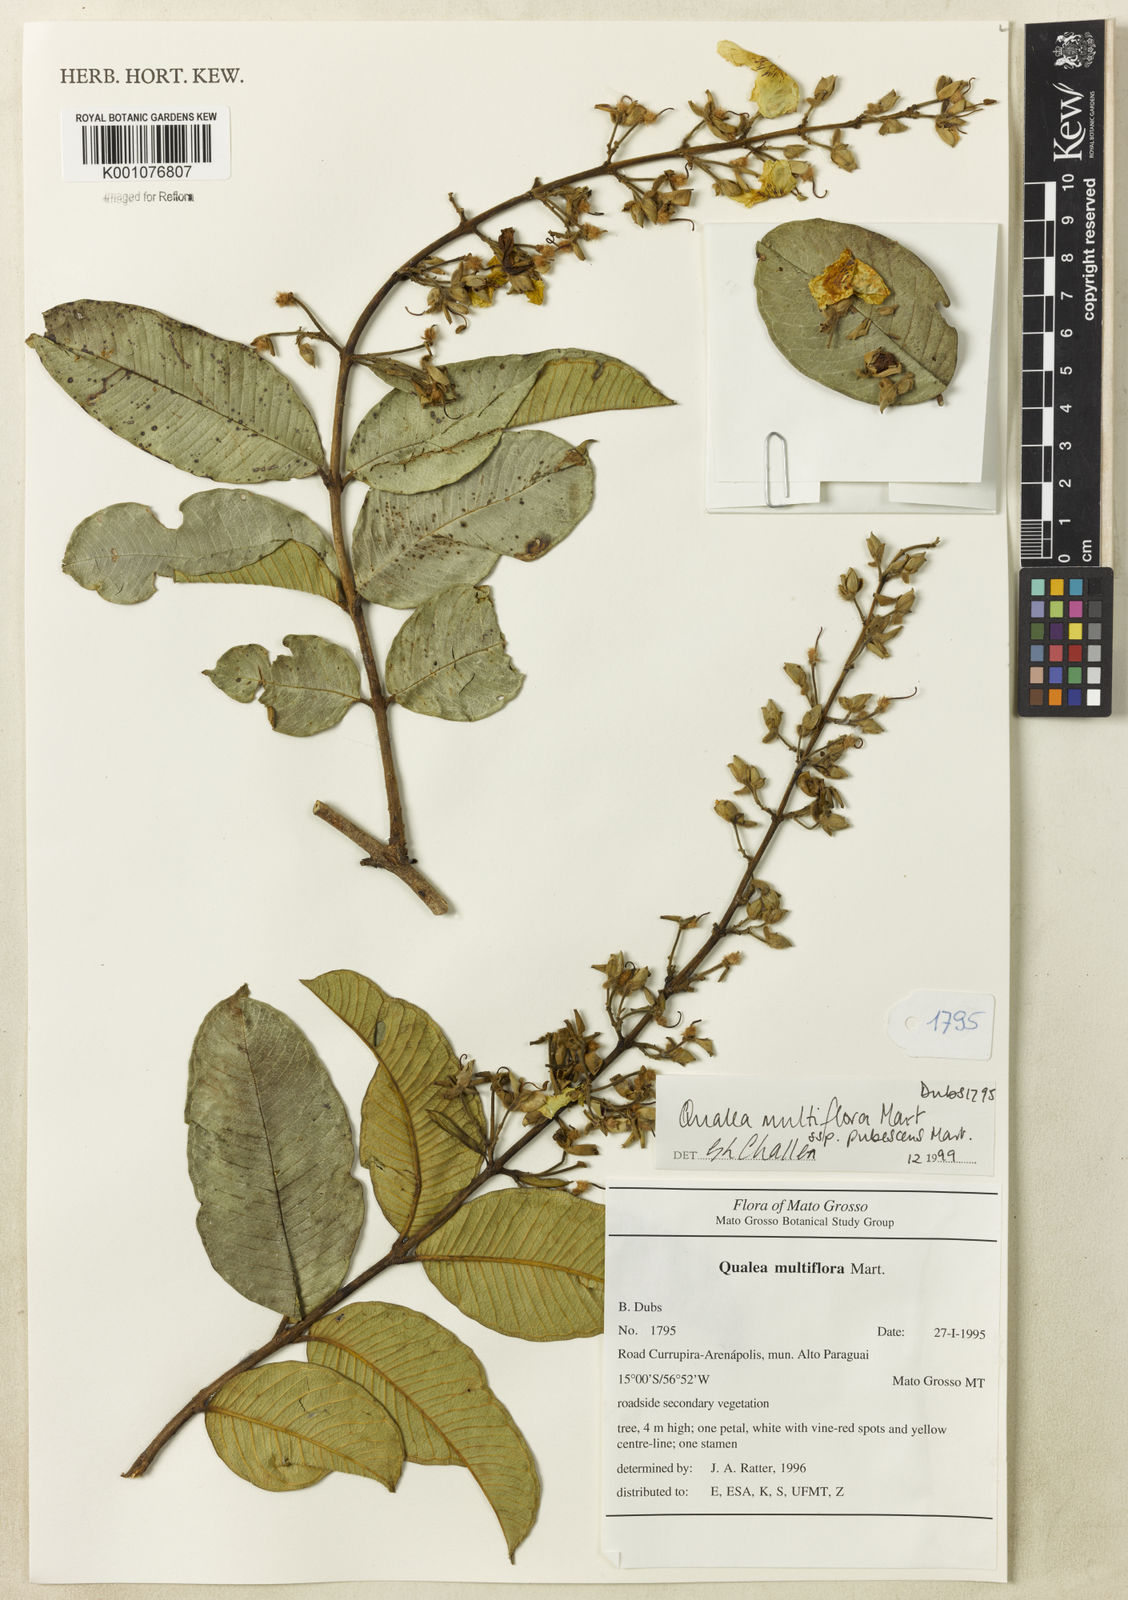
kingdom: Plantae
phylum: Tracheophyta
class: Magnoliopsida
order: Myrtales
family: Vochysiaceae
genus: Qualea
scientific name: Qualea multiflora
